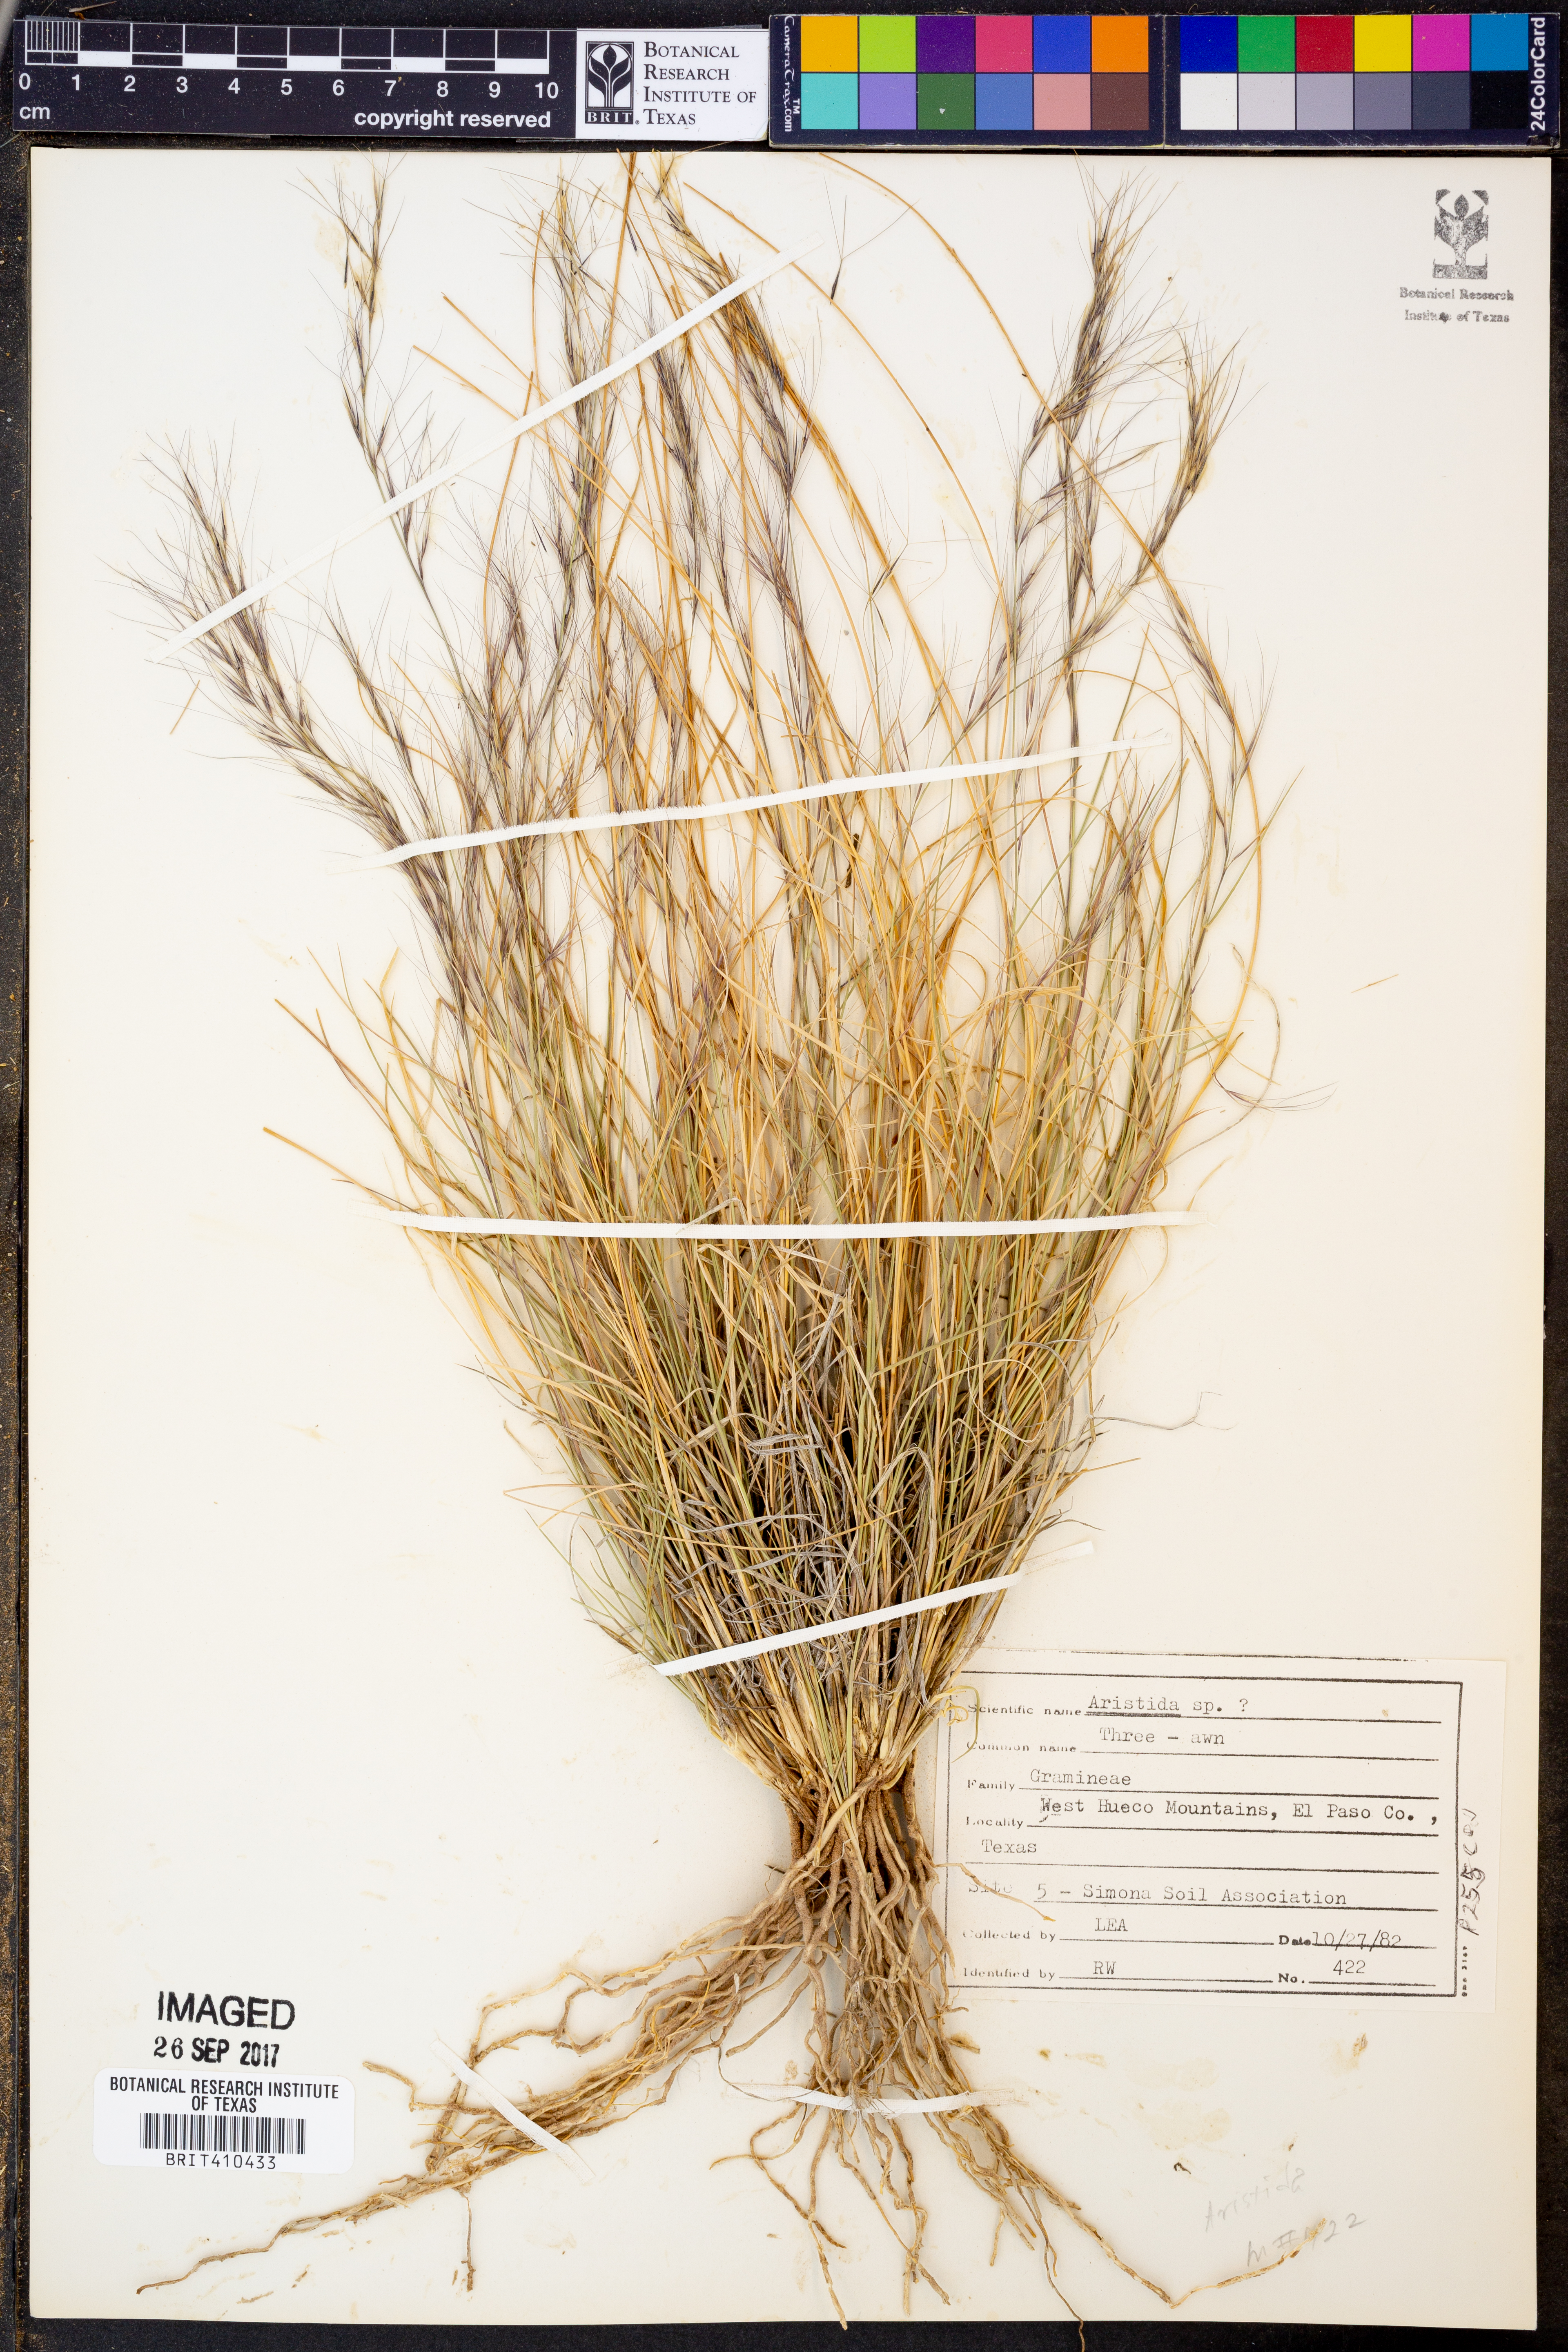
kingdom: Plantae
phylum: Tracheophyta
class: Liliopsida
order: Poales
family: Poaceae
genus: Aristida
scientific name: Aristida
